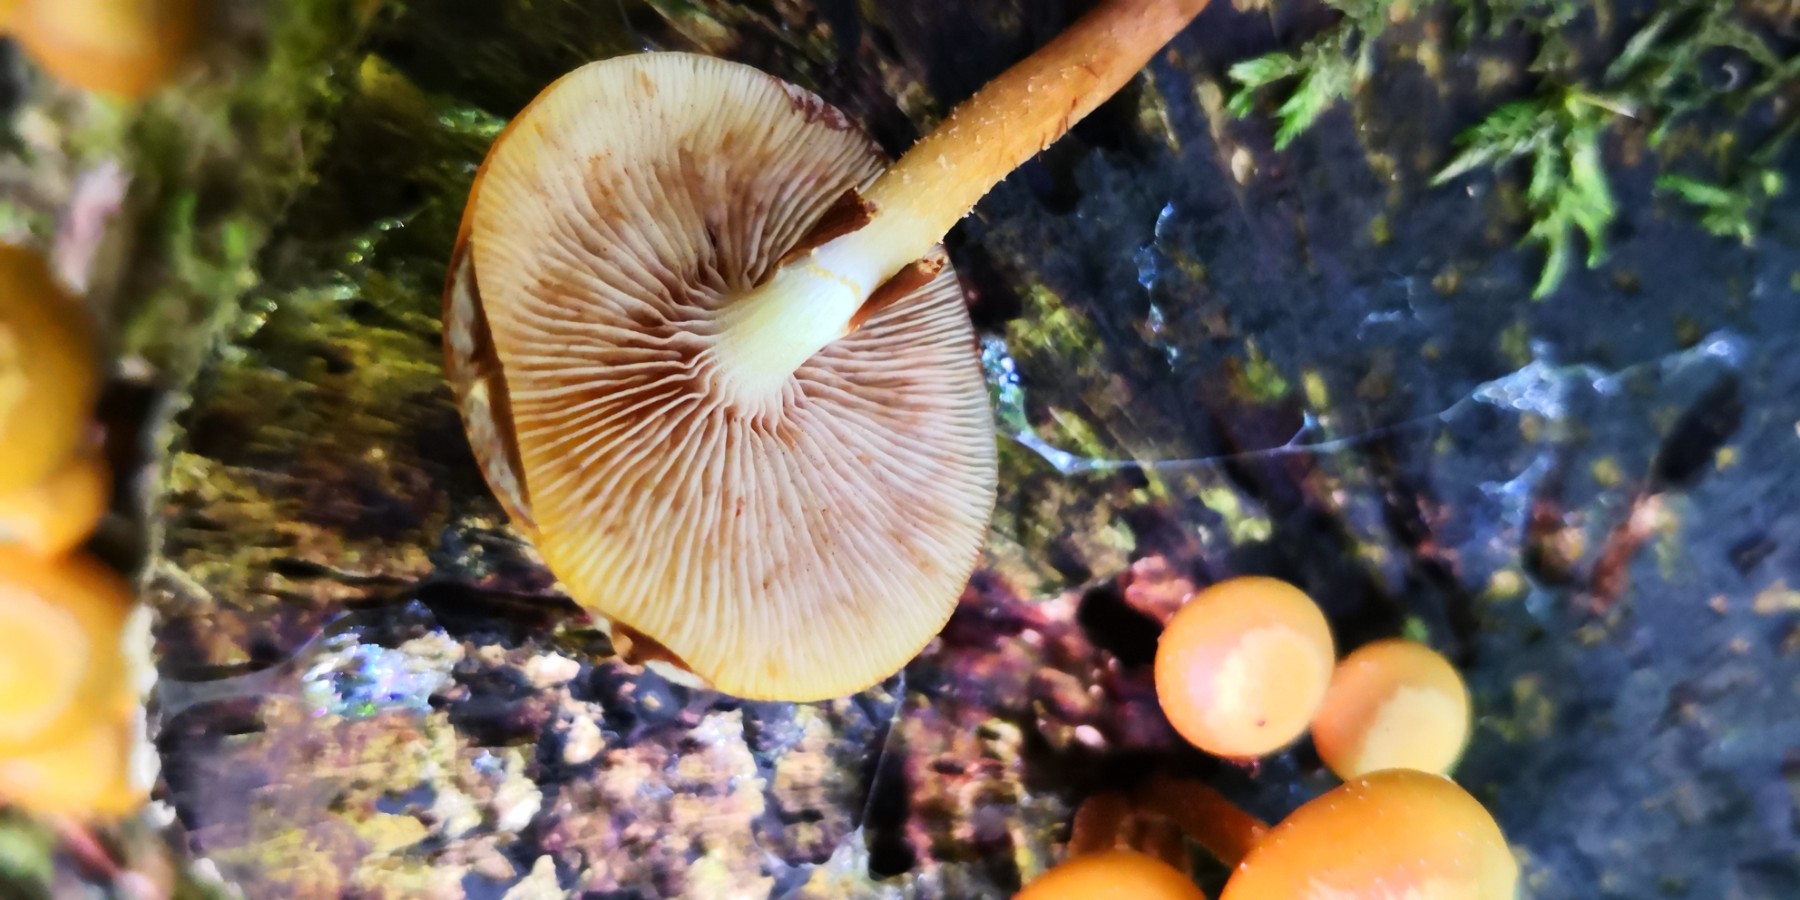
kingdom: Fungi
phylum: Basidiomycota
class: Agaricomycetes
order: Agaricales
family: Strophariaceae
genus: Kuehneromyces
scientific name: Kuehneromyces mutabilis
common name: foranderlig skælhat
